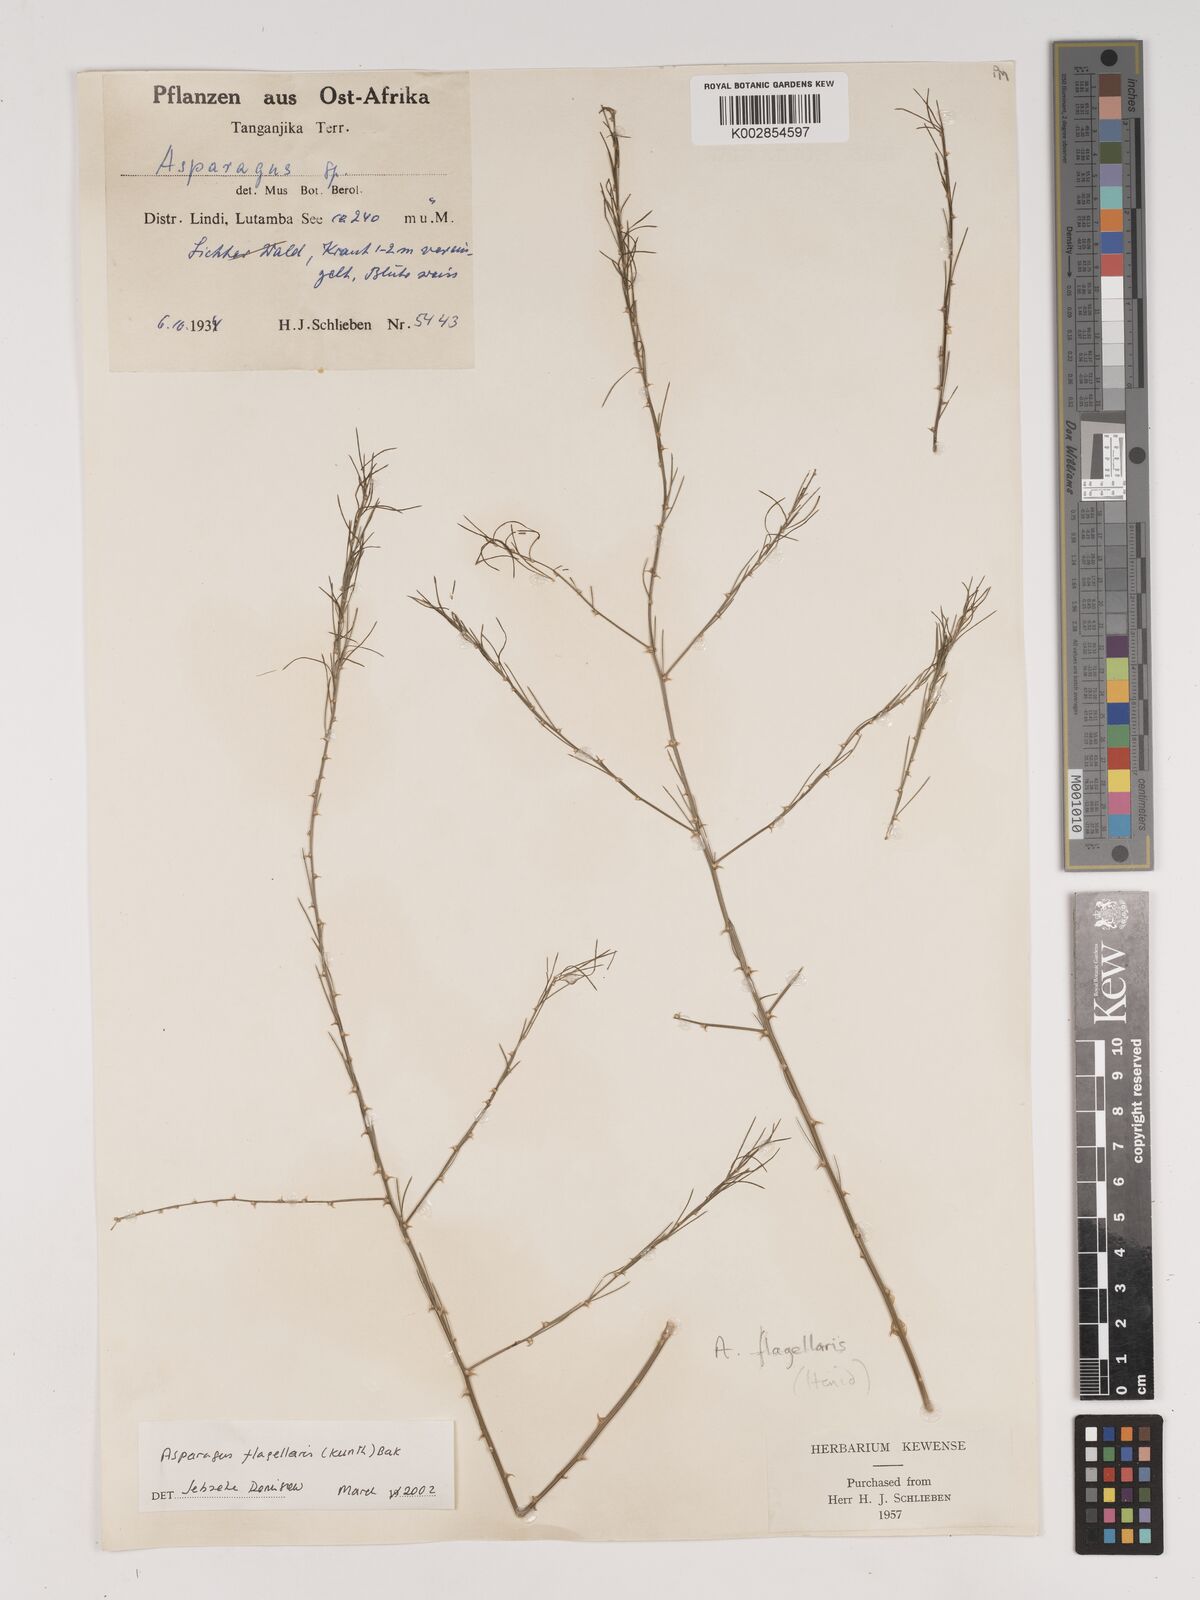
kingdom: Plantae
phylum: Tracheophyta
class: Liliopsida
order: Asparagales
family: Asparagaceae
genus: Asparagus
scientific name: Asparagus flagellaris
